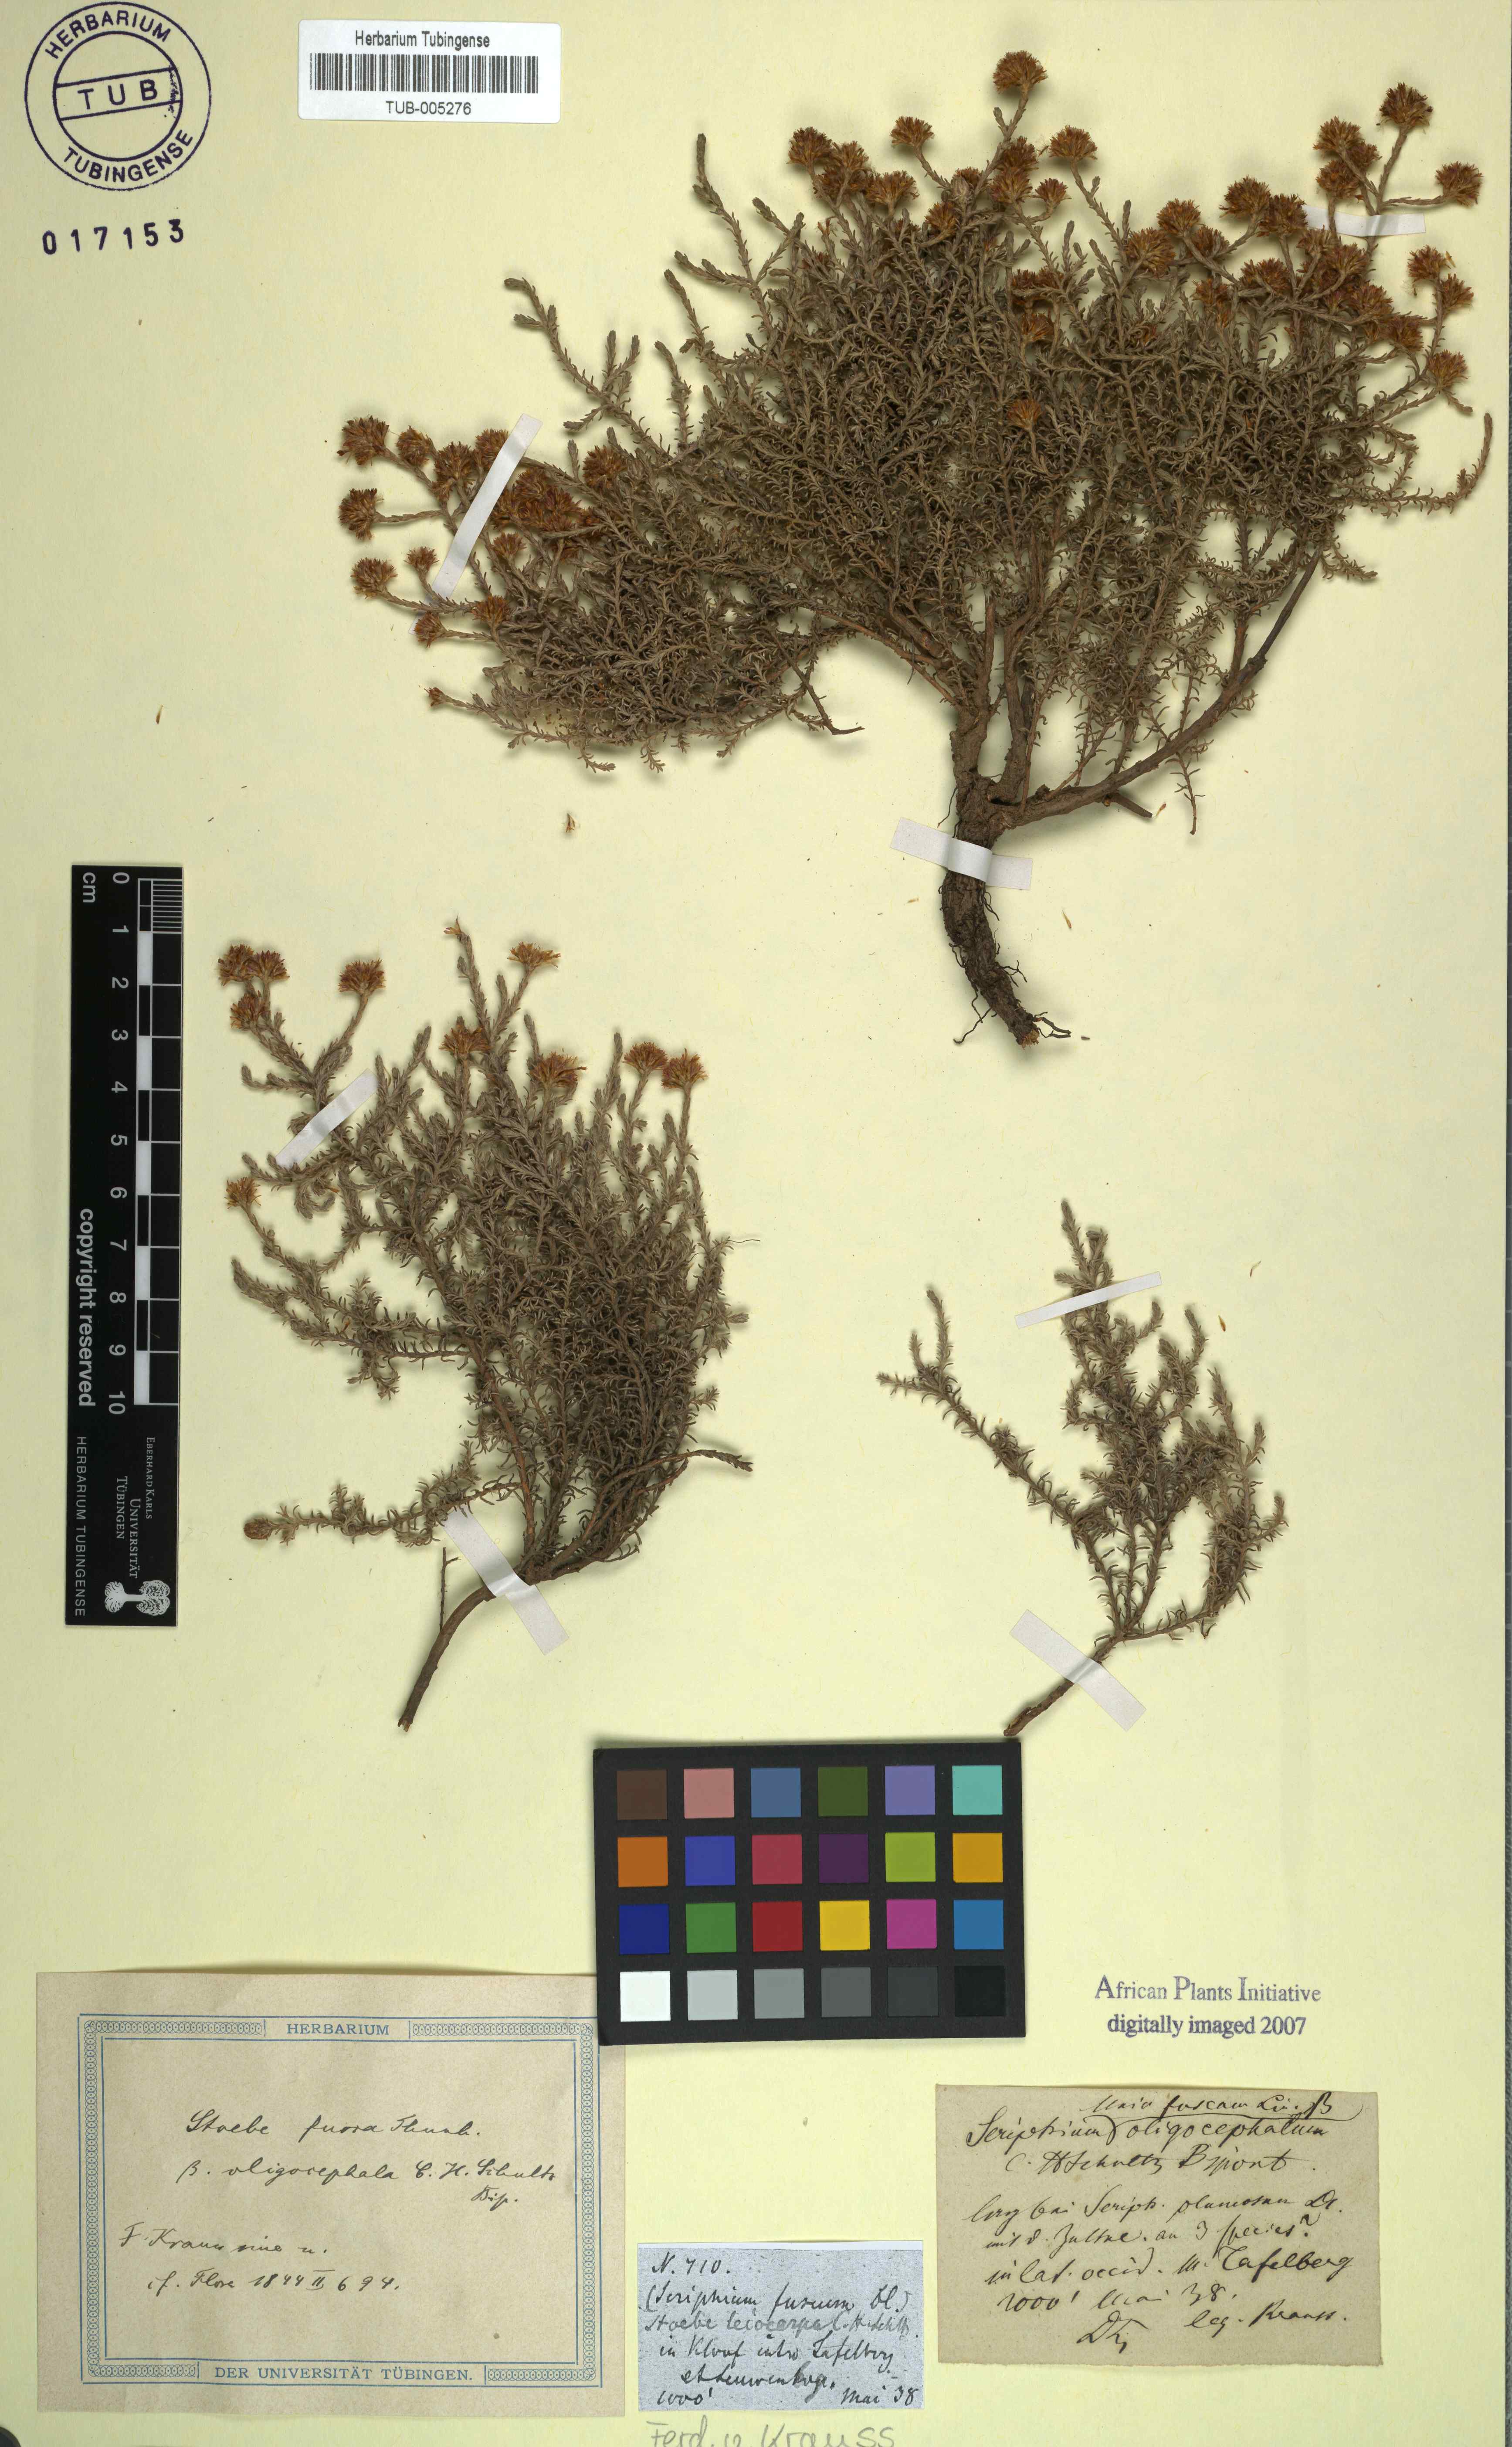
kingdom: Plantae
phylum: Tracheophyta
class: Magnoliopsida
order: Asterales
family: Asteraceae
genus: Stoebe
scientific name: Stoebe fusca
